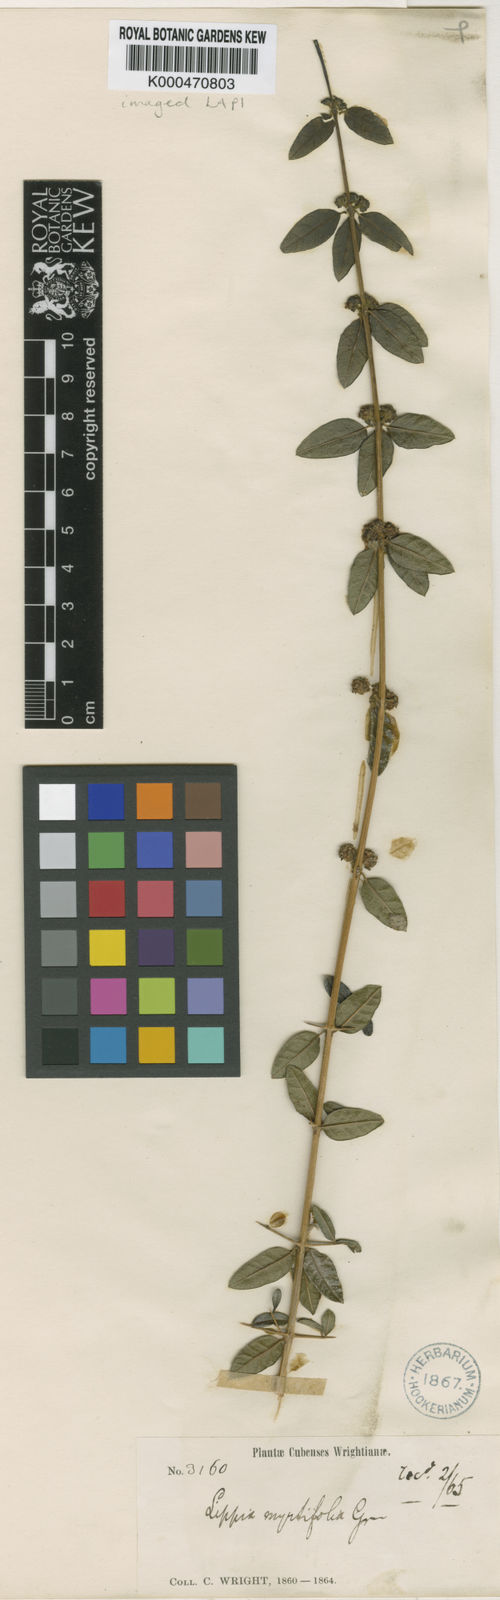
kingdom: Plantae
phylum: Tracheophyta
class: Magnoliopsida
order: Lamiales
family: Verbenaceae
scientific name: Verbenaceae
